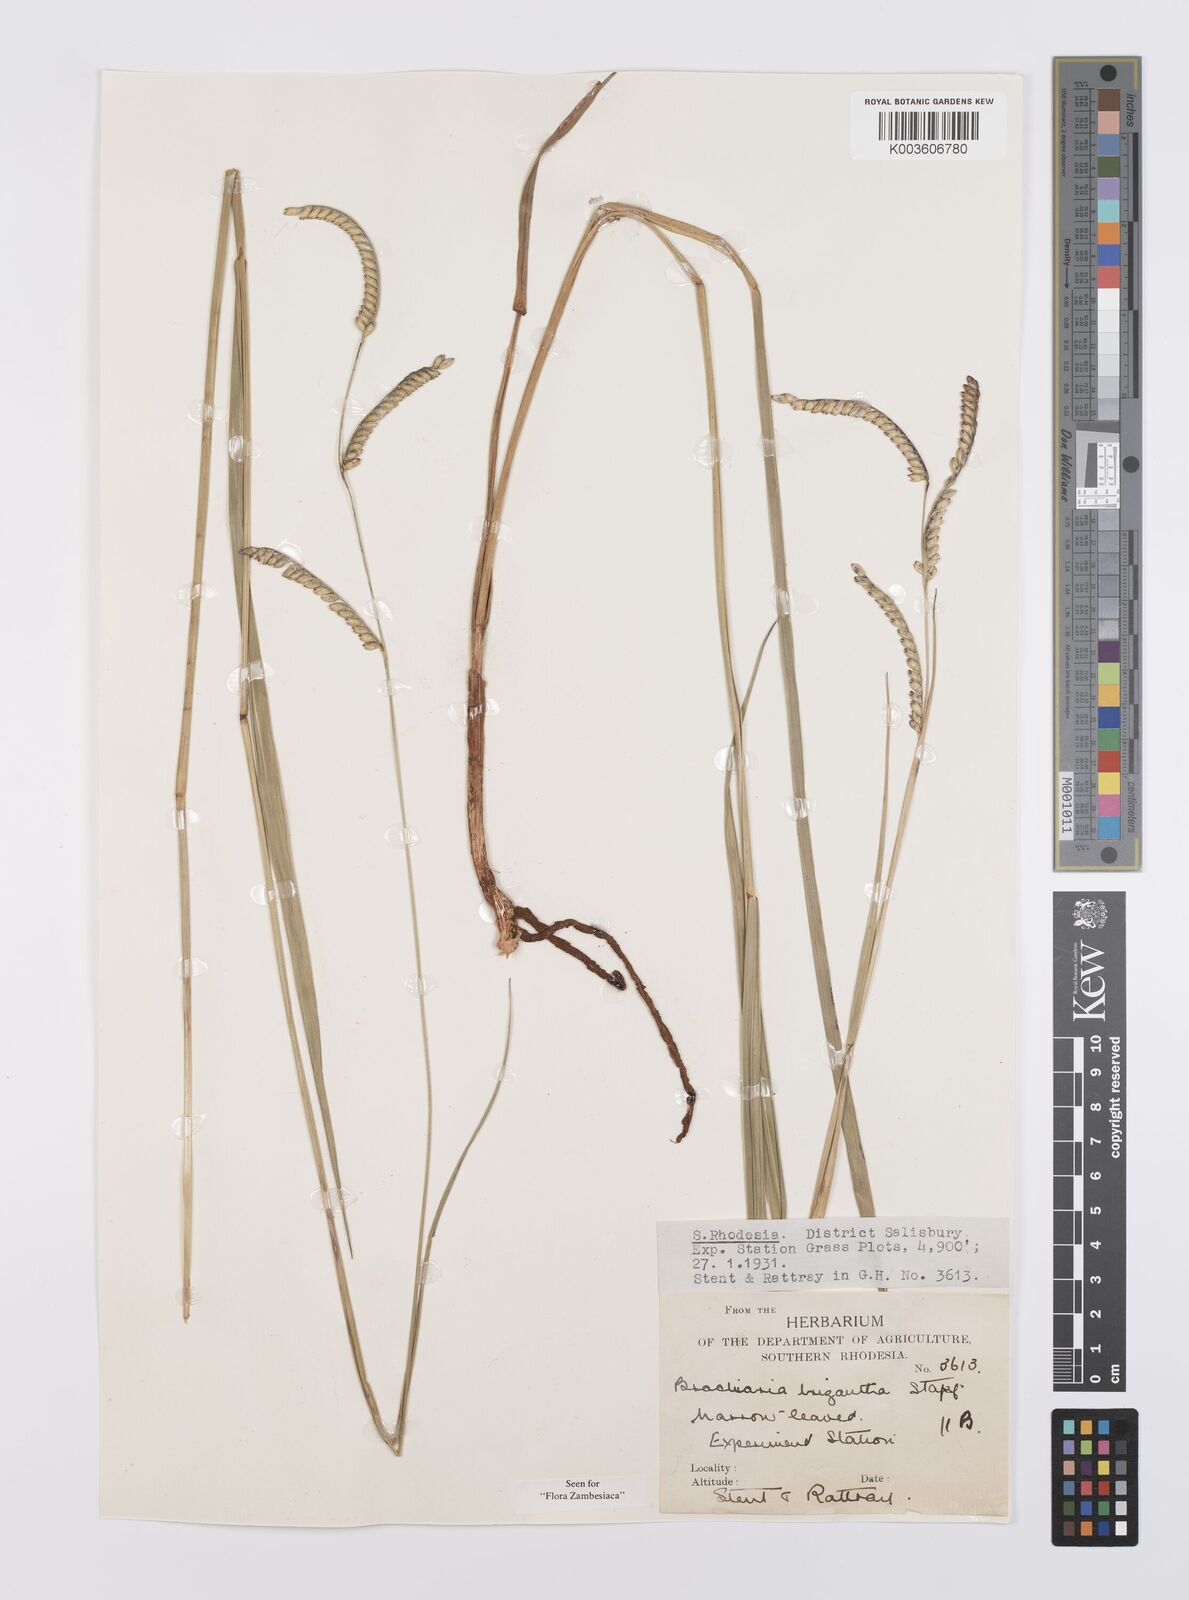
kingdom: Plantae
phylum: Tracheophyta
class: Liliopsida
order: Poales
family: Poaceae
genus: Urochloa
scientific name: Urochloa brizantha
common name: Palisade signalgrass
